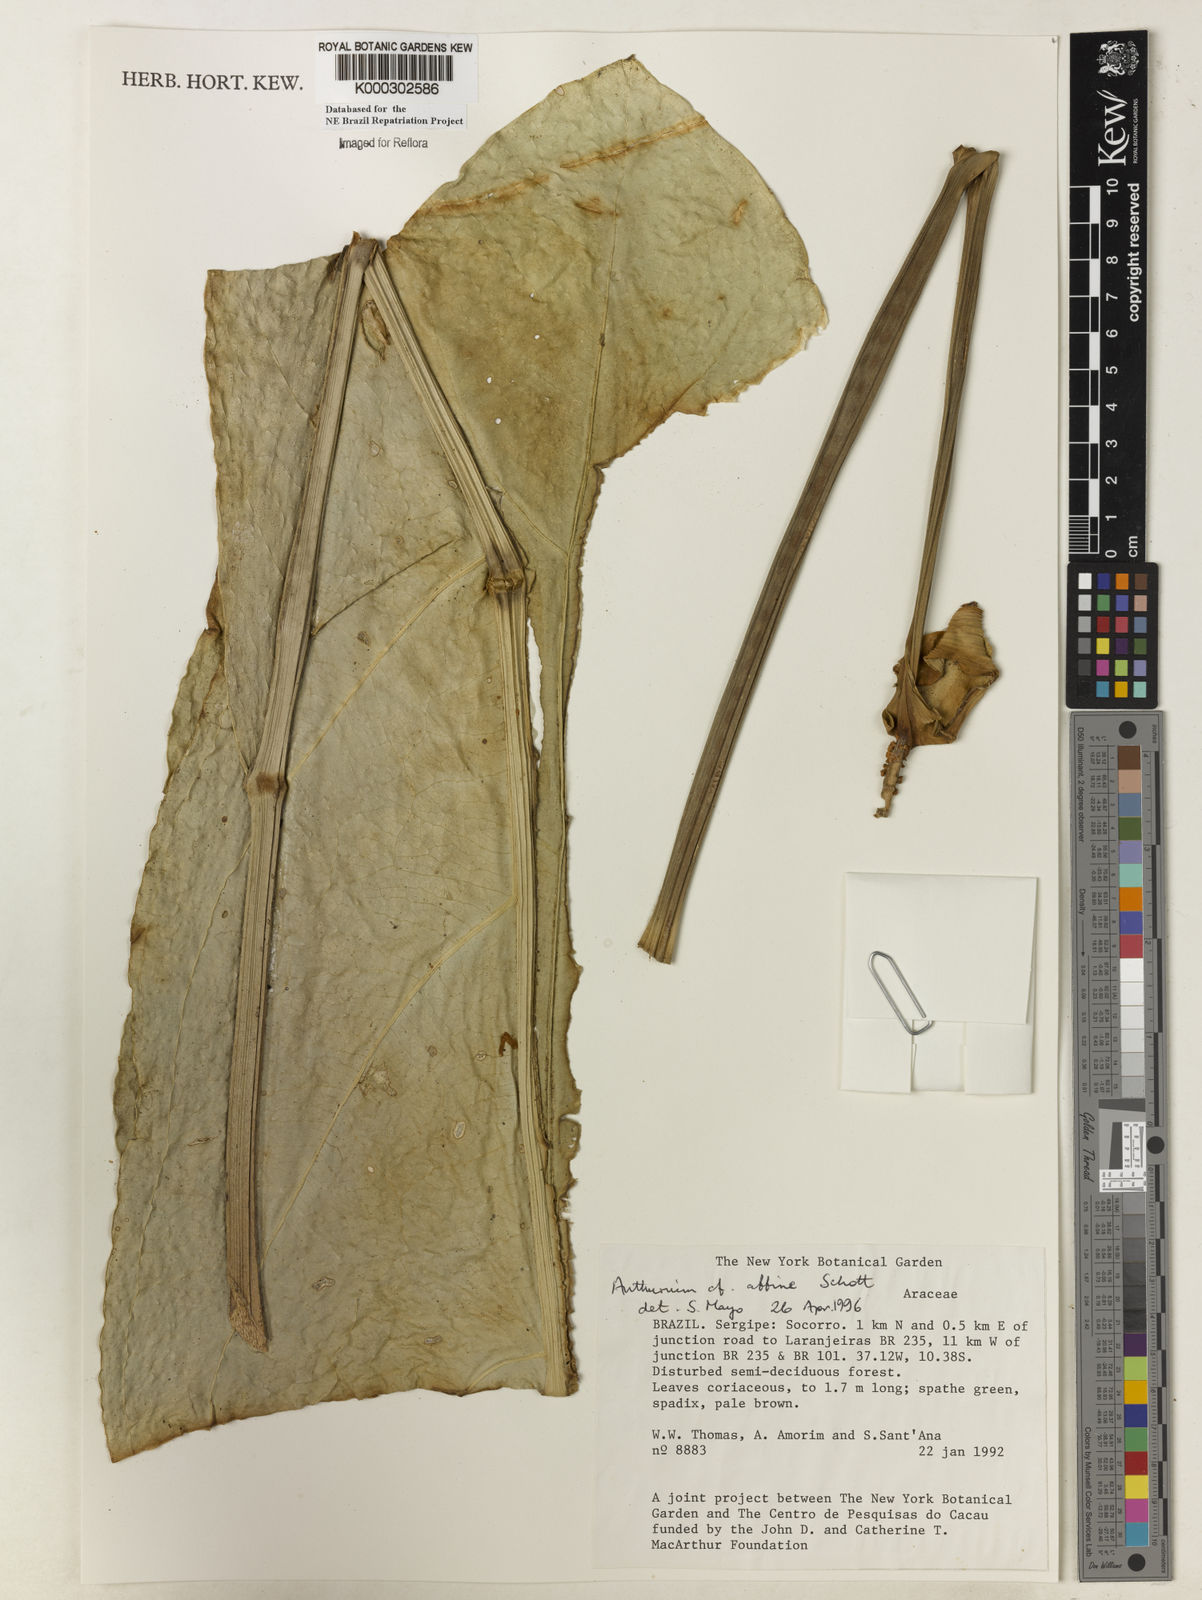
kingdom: Plantae
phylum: Tracheophyta
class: Liliopsida
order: Alismatales
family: Araceae
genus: Anthurium
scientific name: Anthurium affine
